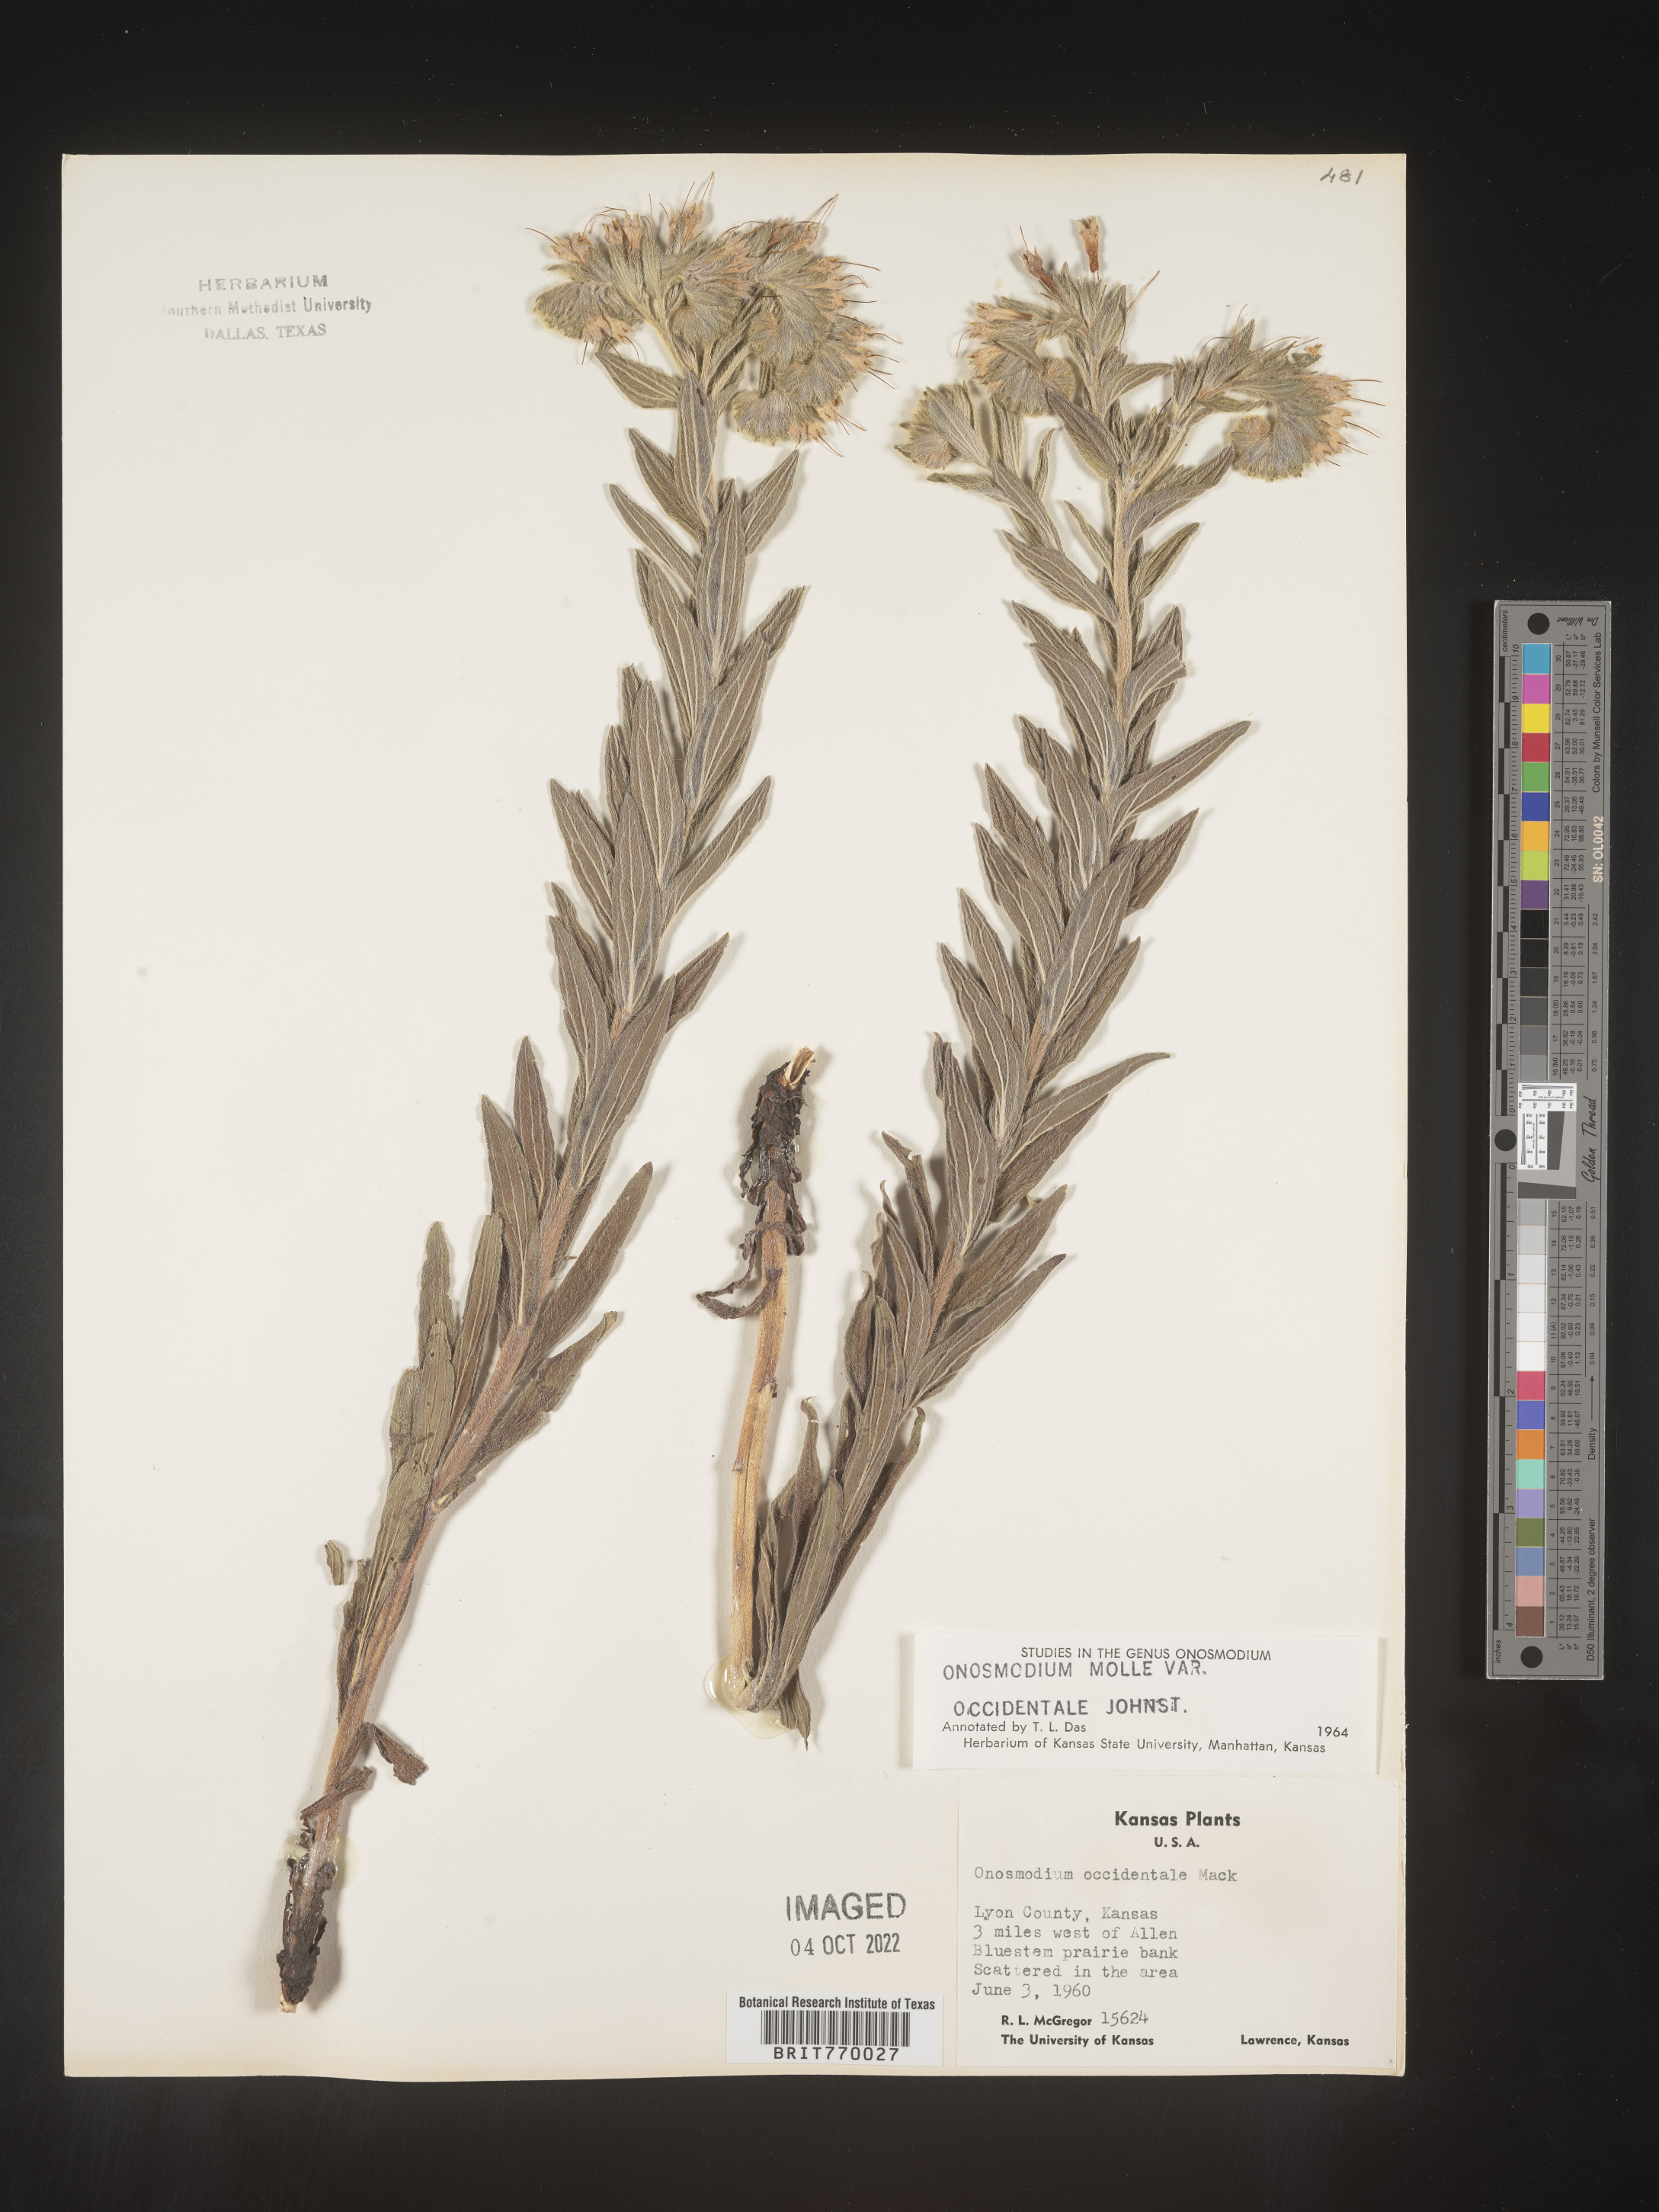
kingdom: Plantae
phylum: Tracheophyta
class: Magnoliopsida
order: Boraginales
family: Boraginaceae
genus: Lithospermum
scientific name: Lithospermum occidentale
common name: Western false gromwell
